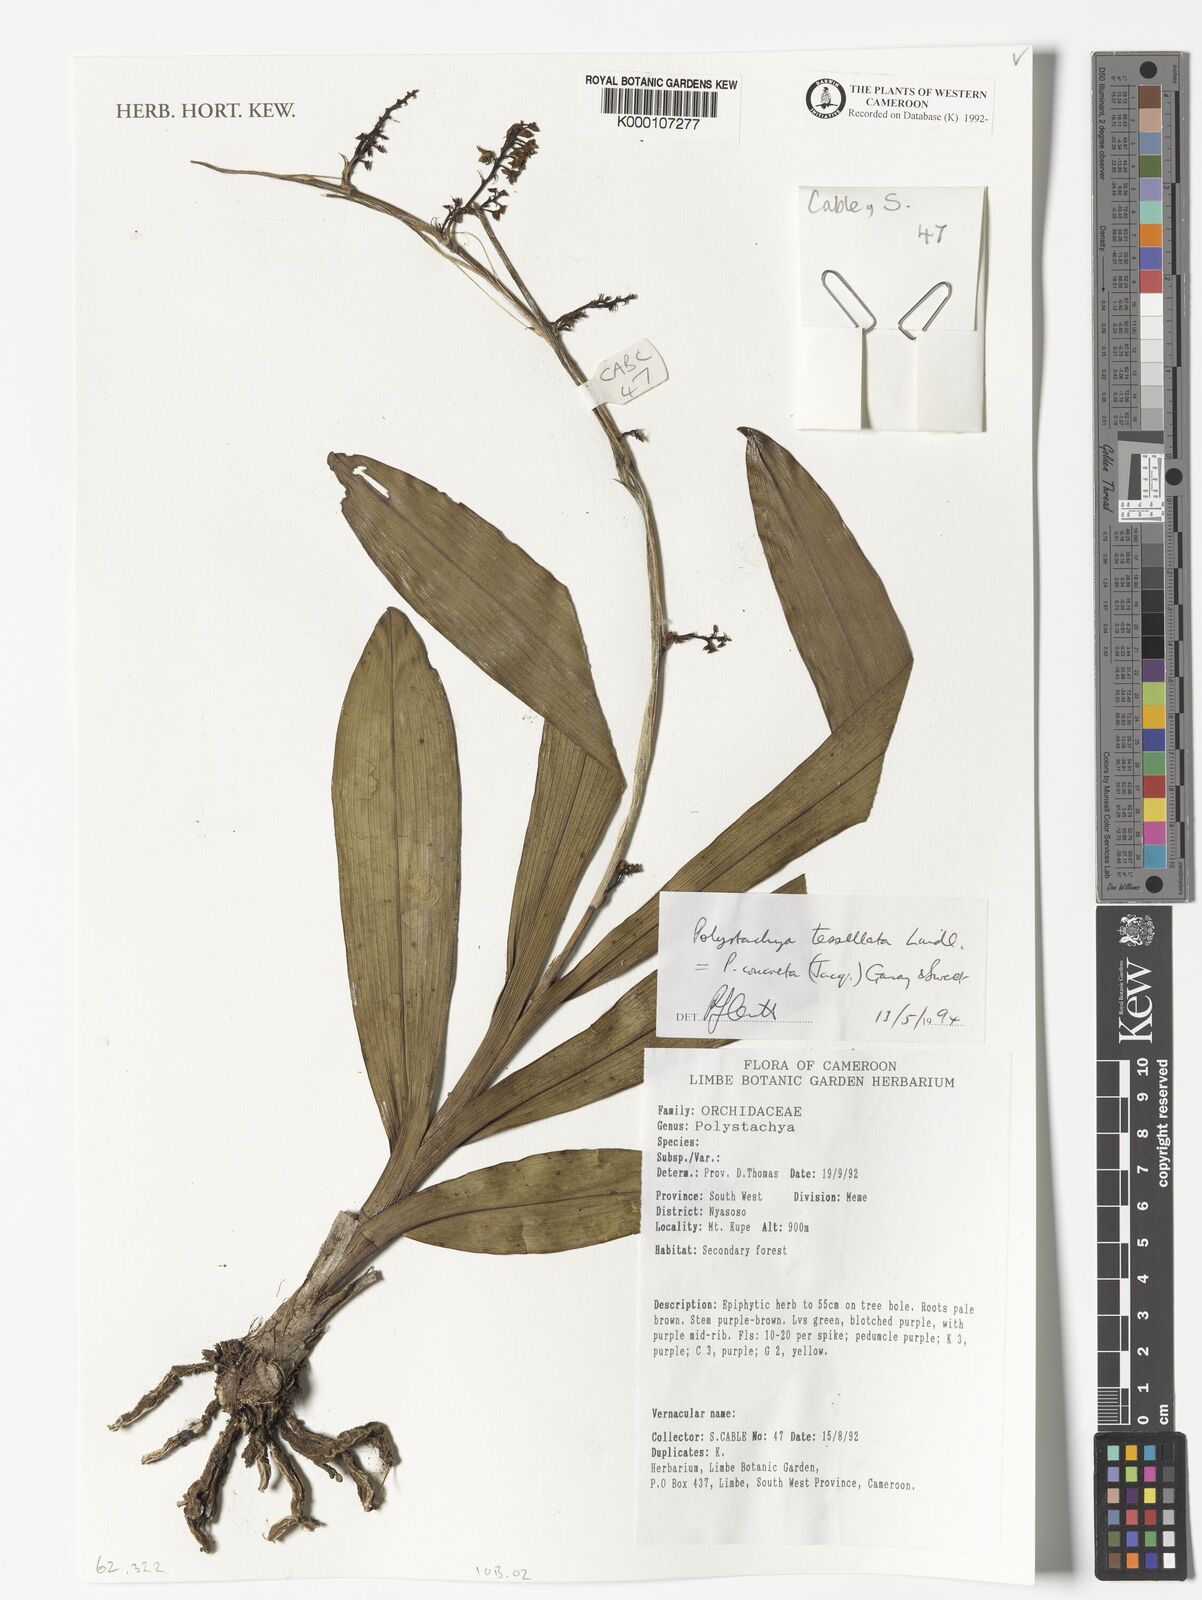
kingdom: Plantae
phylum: Tracheophyta
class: Liliopsida
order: Asparagales
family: Orchidaceae
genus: Polystachya
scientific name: Polystachya concreta
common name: Greater yellowspike orchid
